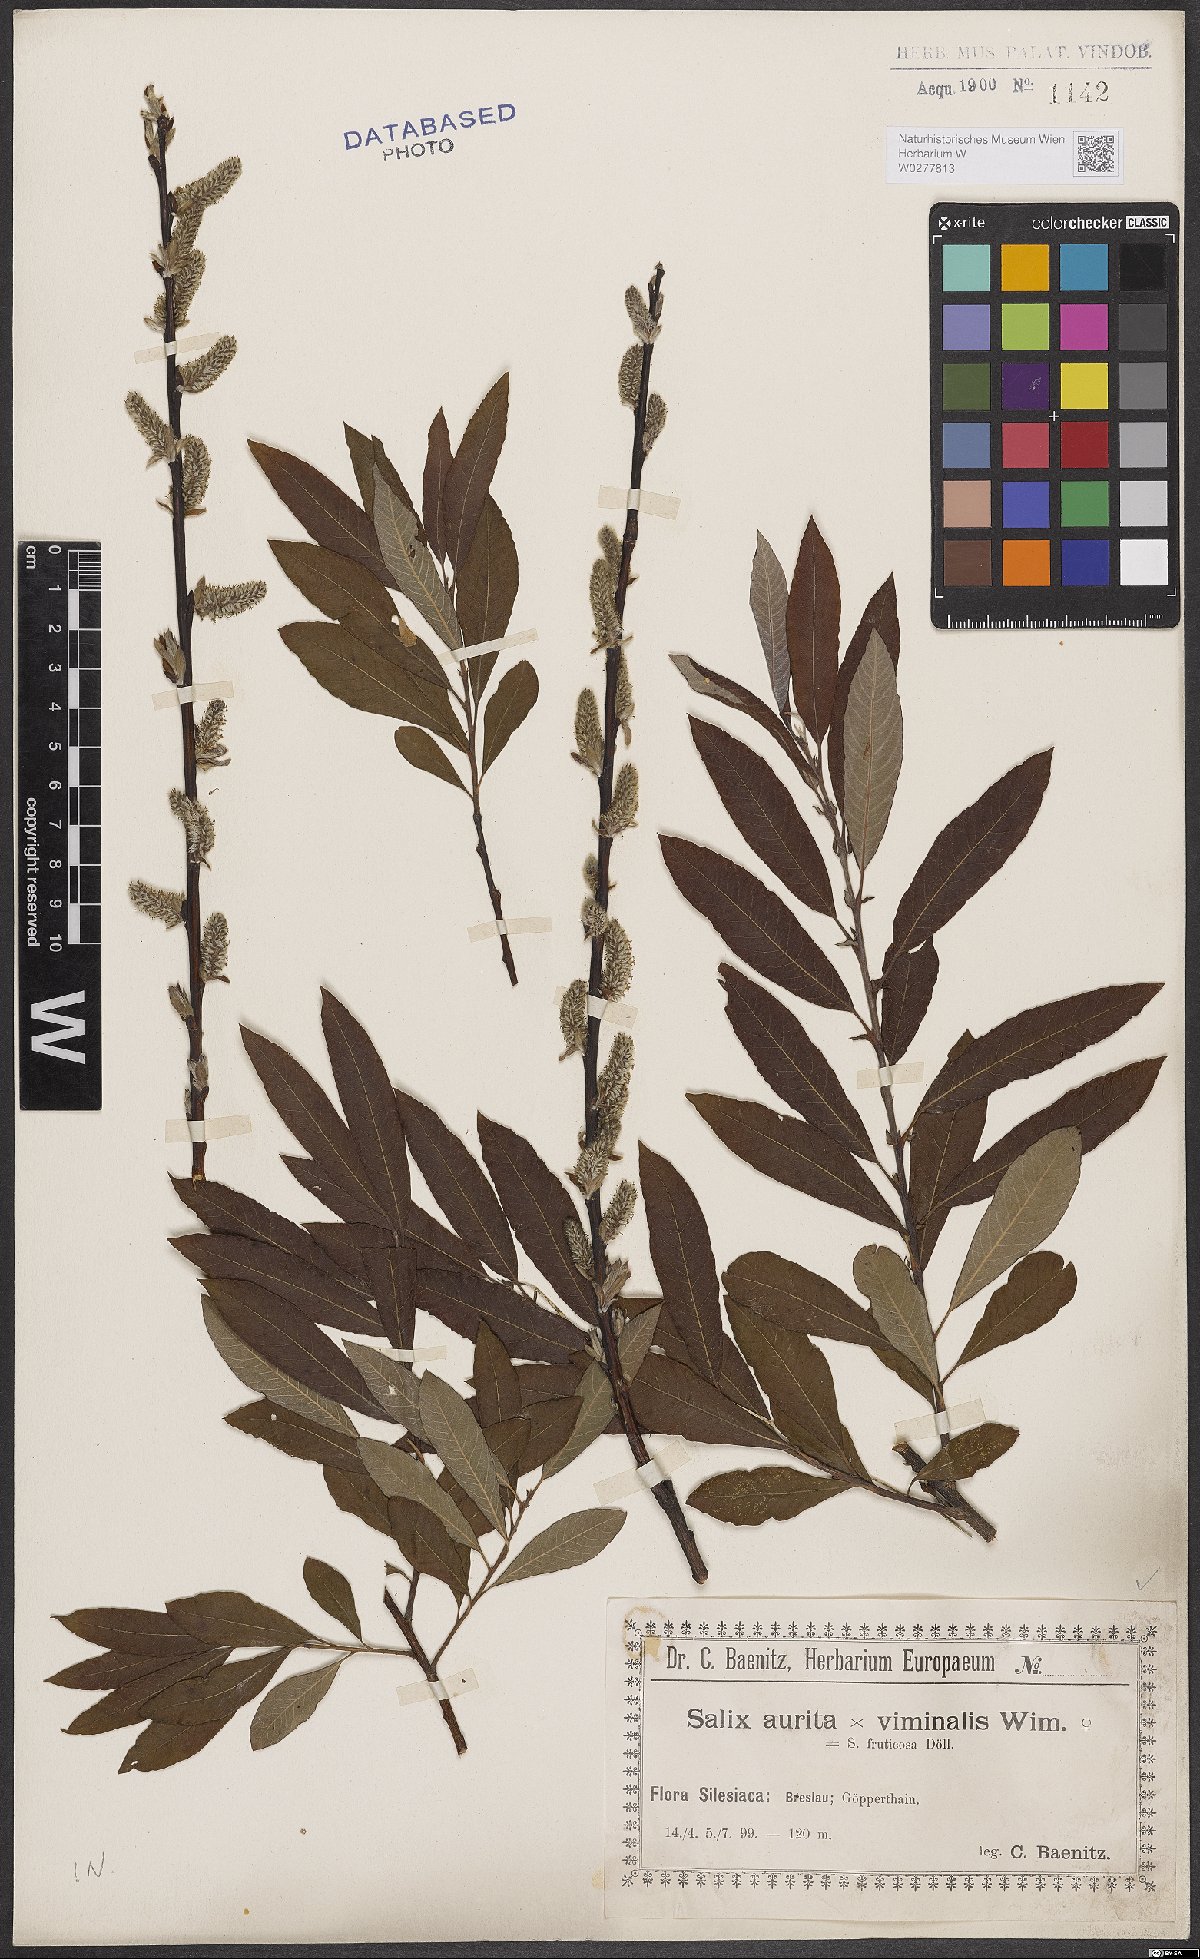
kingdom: Plantae
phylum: Tracheophyta
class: Magnoliopsida
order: Malpighiales
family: Salicaceae
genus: Salix
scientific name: Salix aurita
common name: Eared willow
